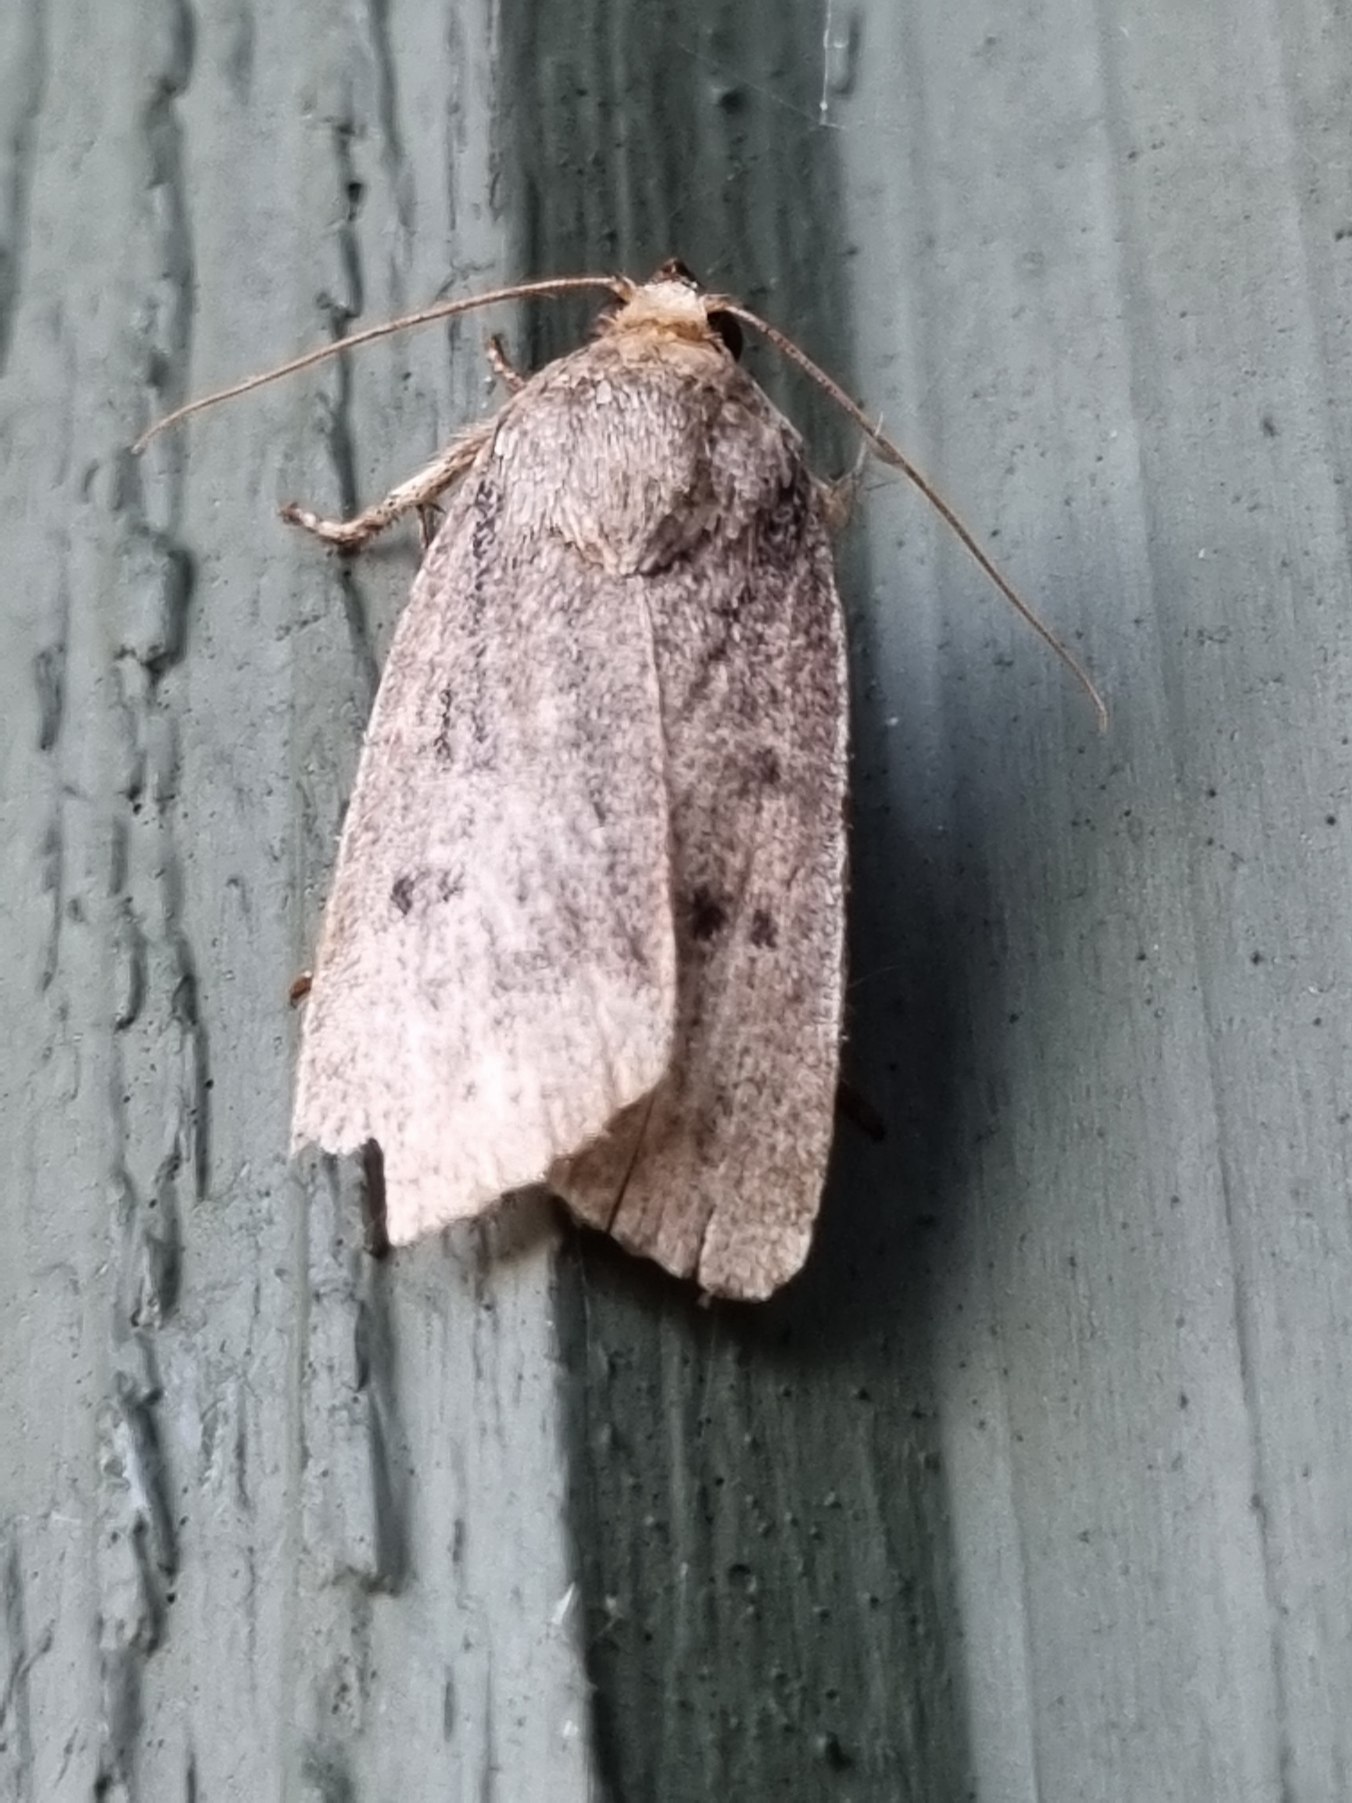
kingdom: Animalia
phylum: Arthropoda
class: Insecta
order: Lepidoptera
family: Noctuidae
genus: Amphipyra
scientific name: Amphipyra tragopoginis
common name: Blyantsugle
